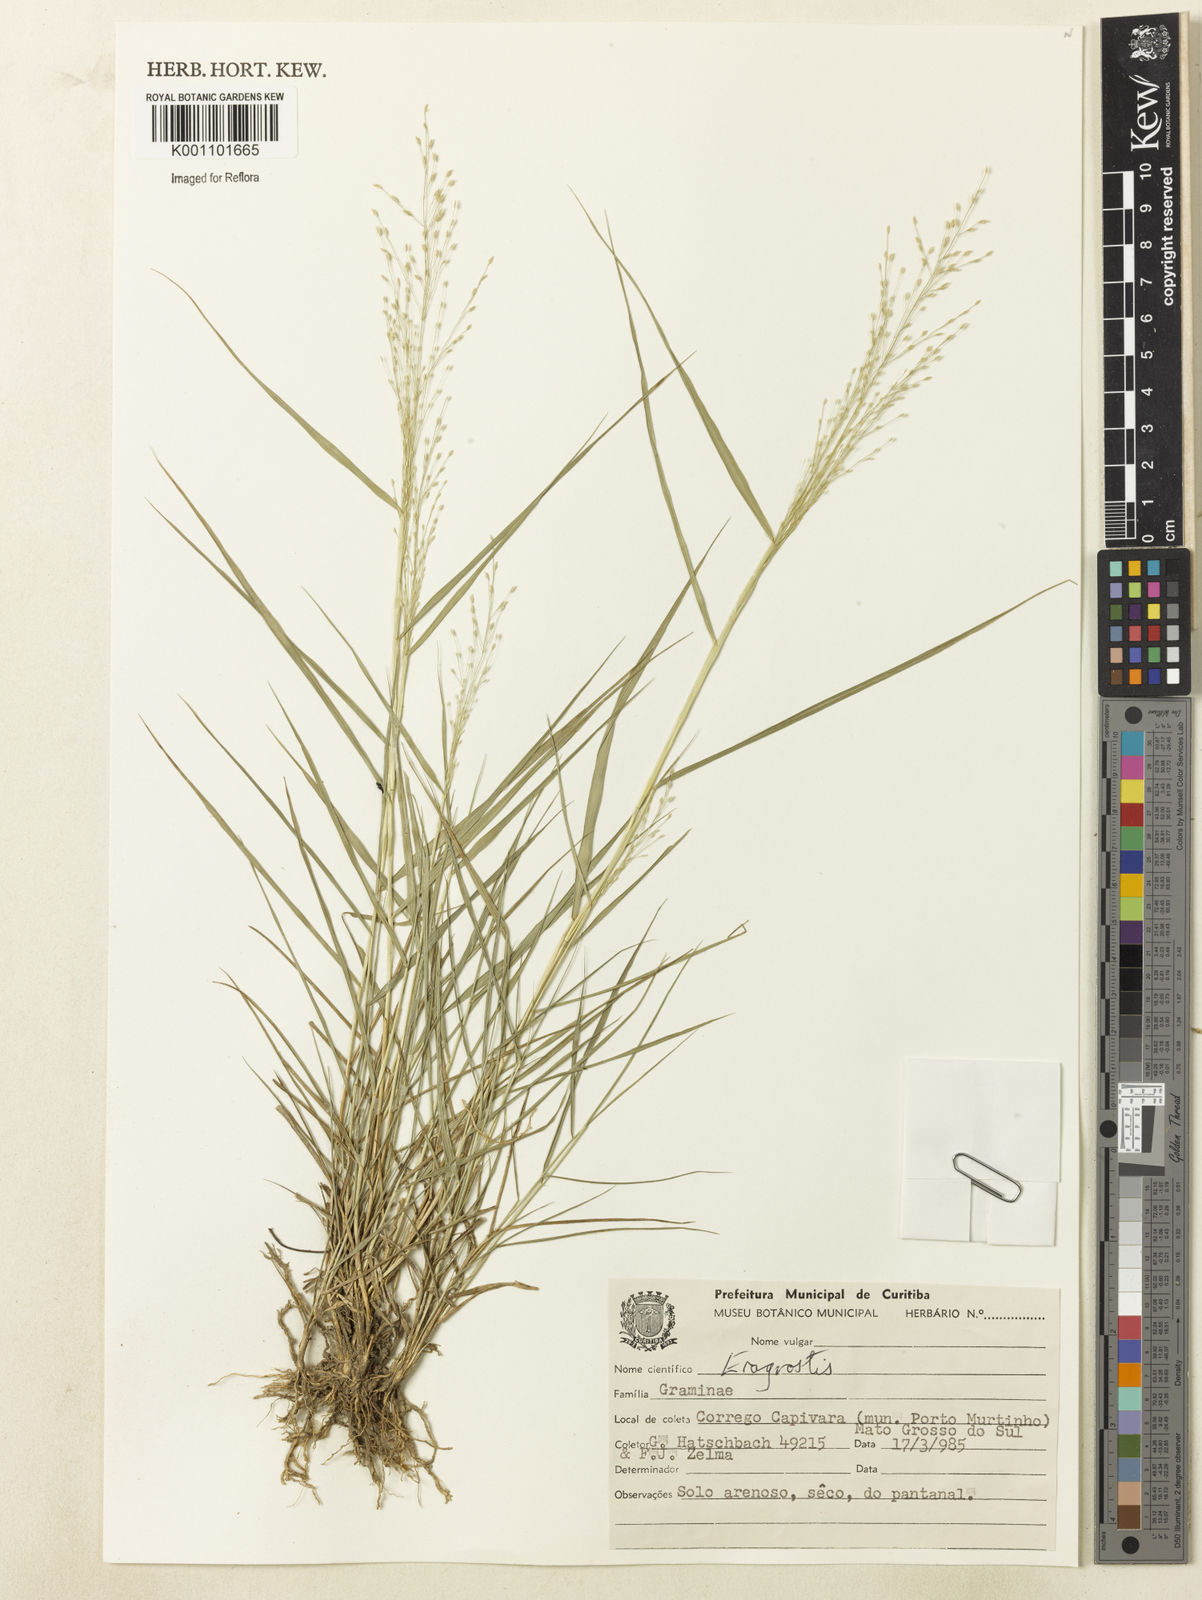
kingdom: Plantae
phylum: Tracheophyta
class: Liliopsida
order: Poales
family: Poaceae
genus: Eragrostis
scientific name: Eragrostis orthoclada
